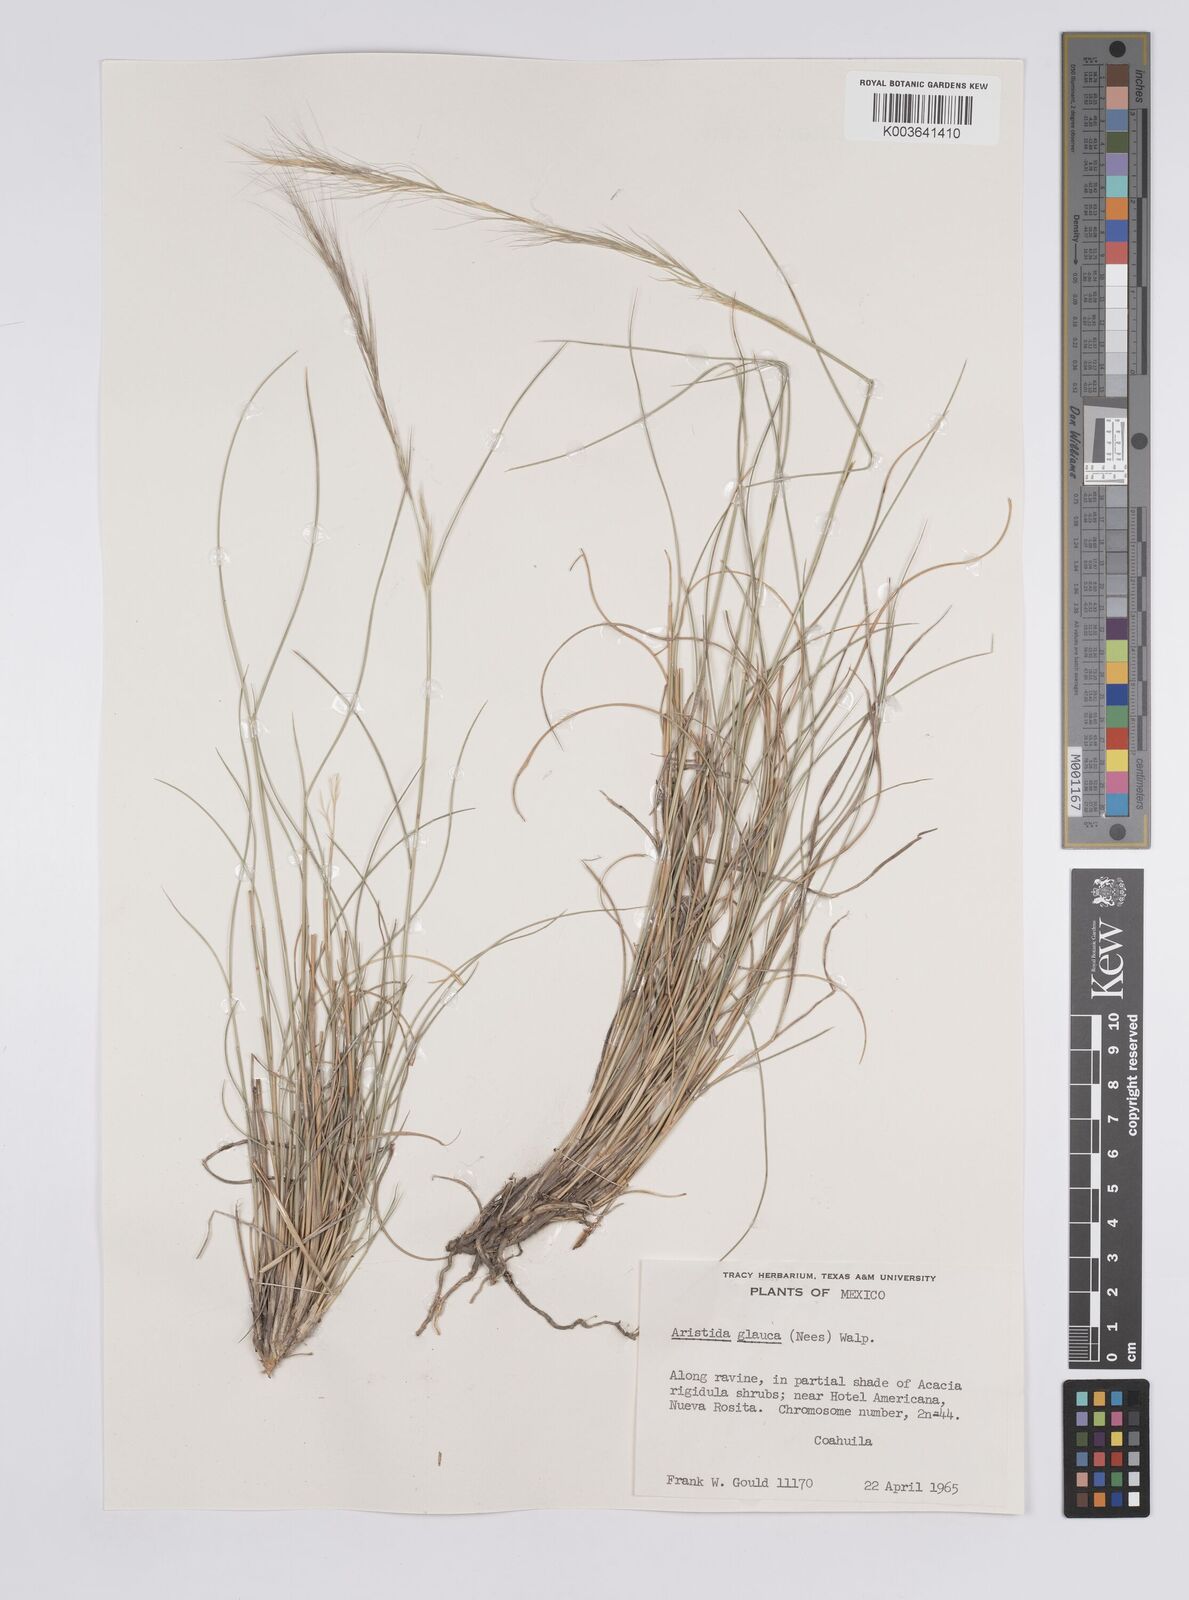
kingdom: Plantae
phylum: Tracheophyta
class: Liliopsida
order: Poales
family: Poaceae
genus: Aristida
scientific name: Aristida purpurea
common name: Purple threeawn
